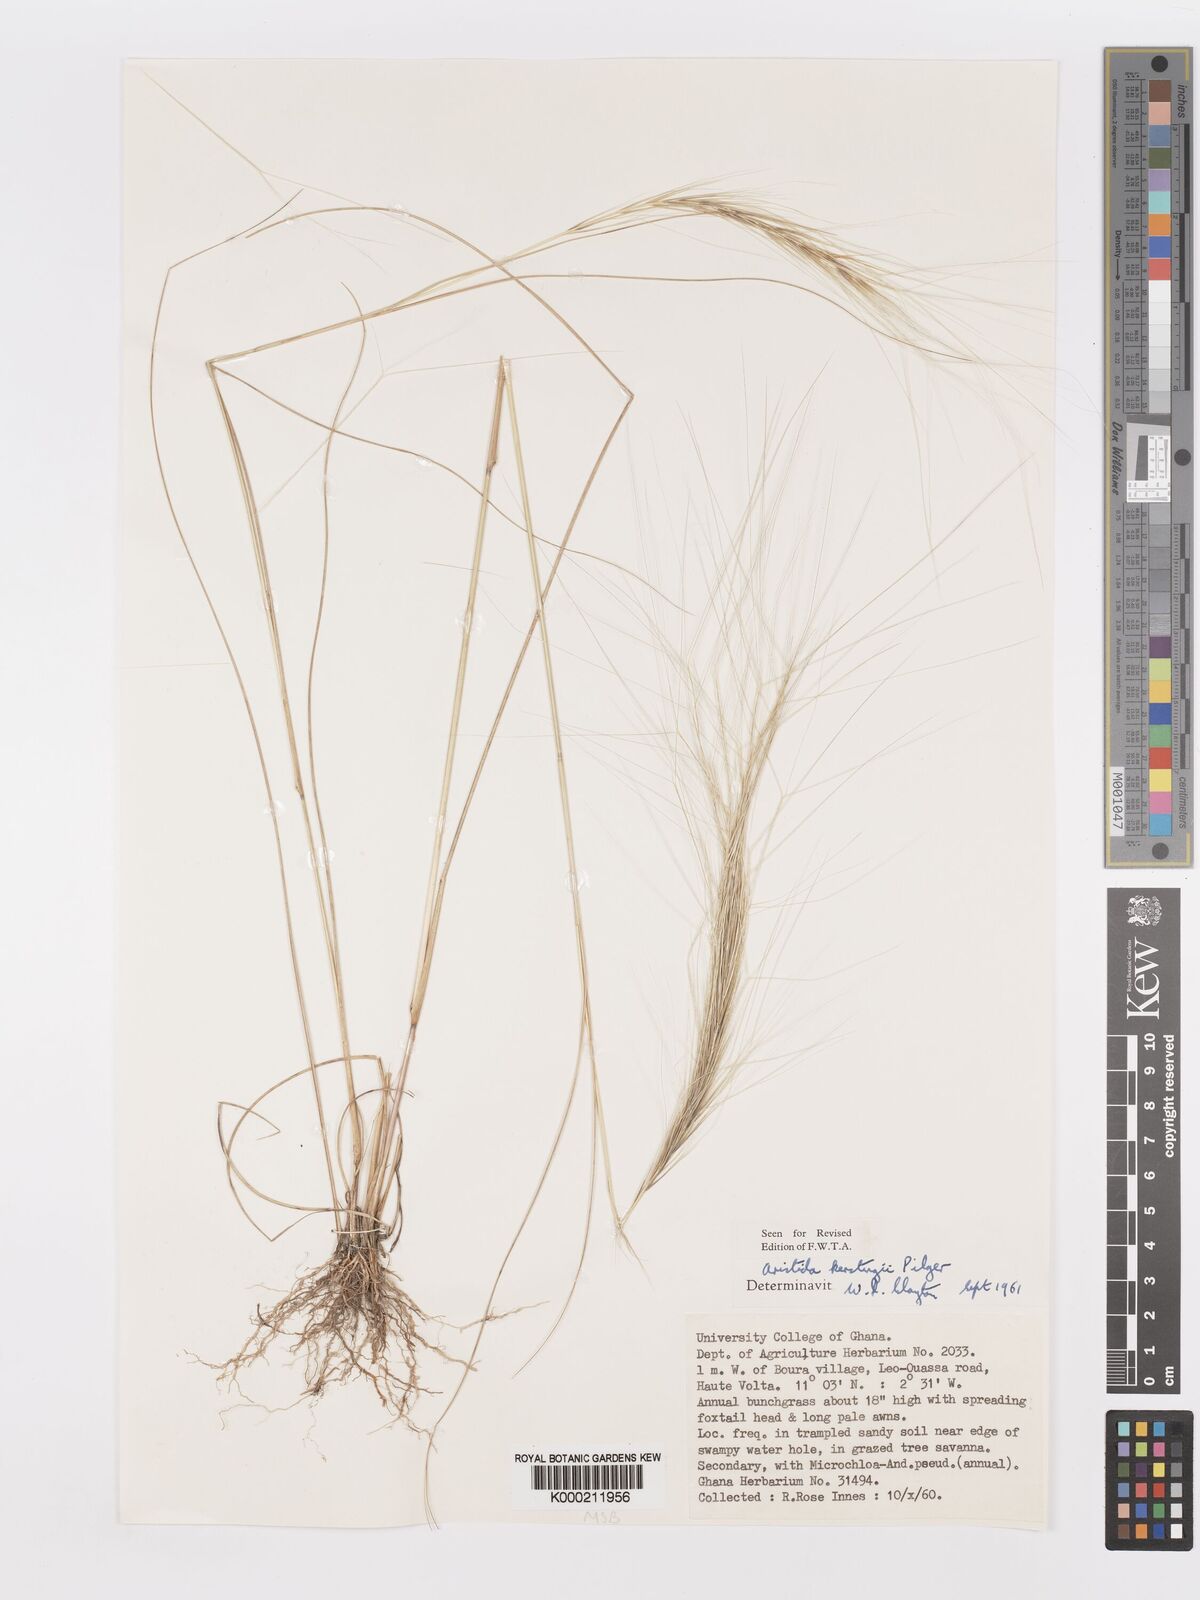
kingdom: Plantae
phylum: Tracheophyta
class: Liliopsida
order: Poales
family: Poaceae
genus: Aristida
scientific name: Aristida kerstingii
